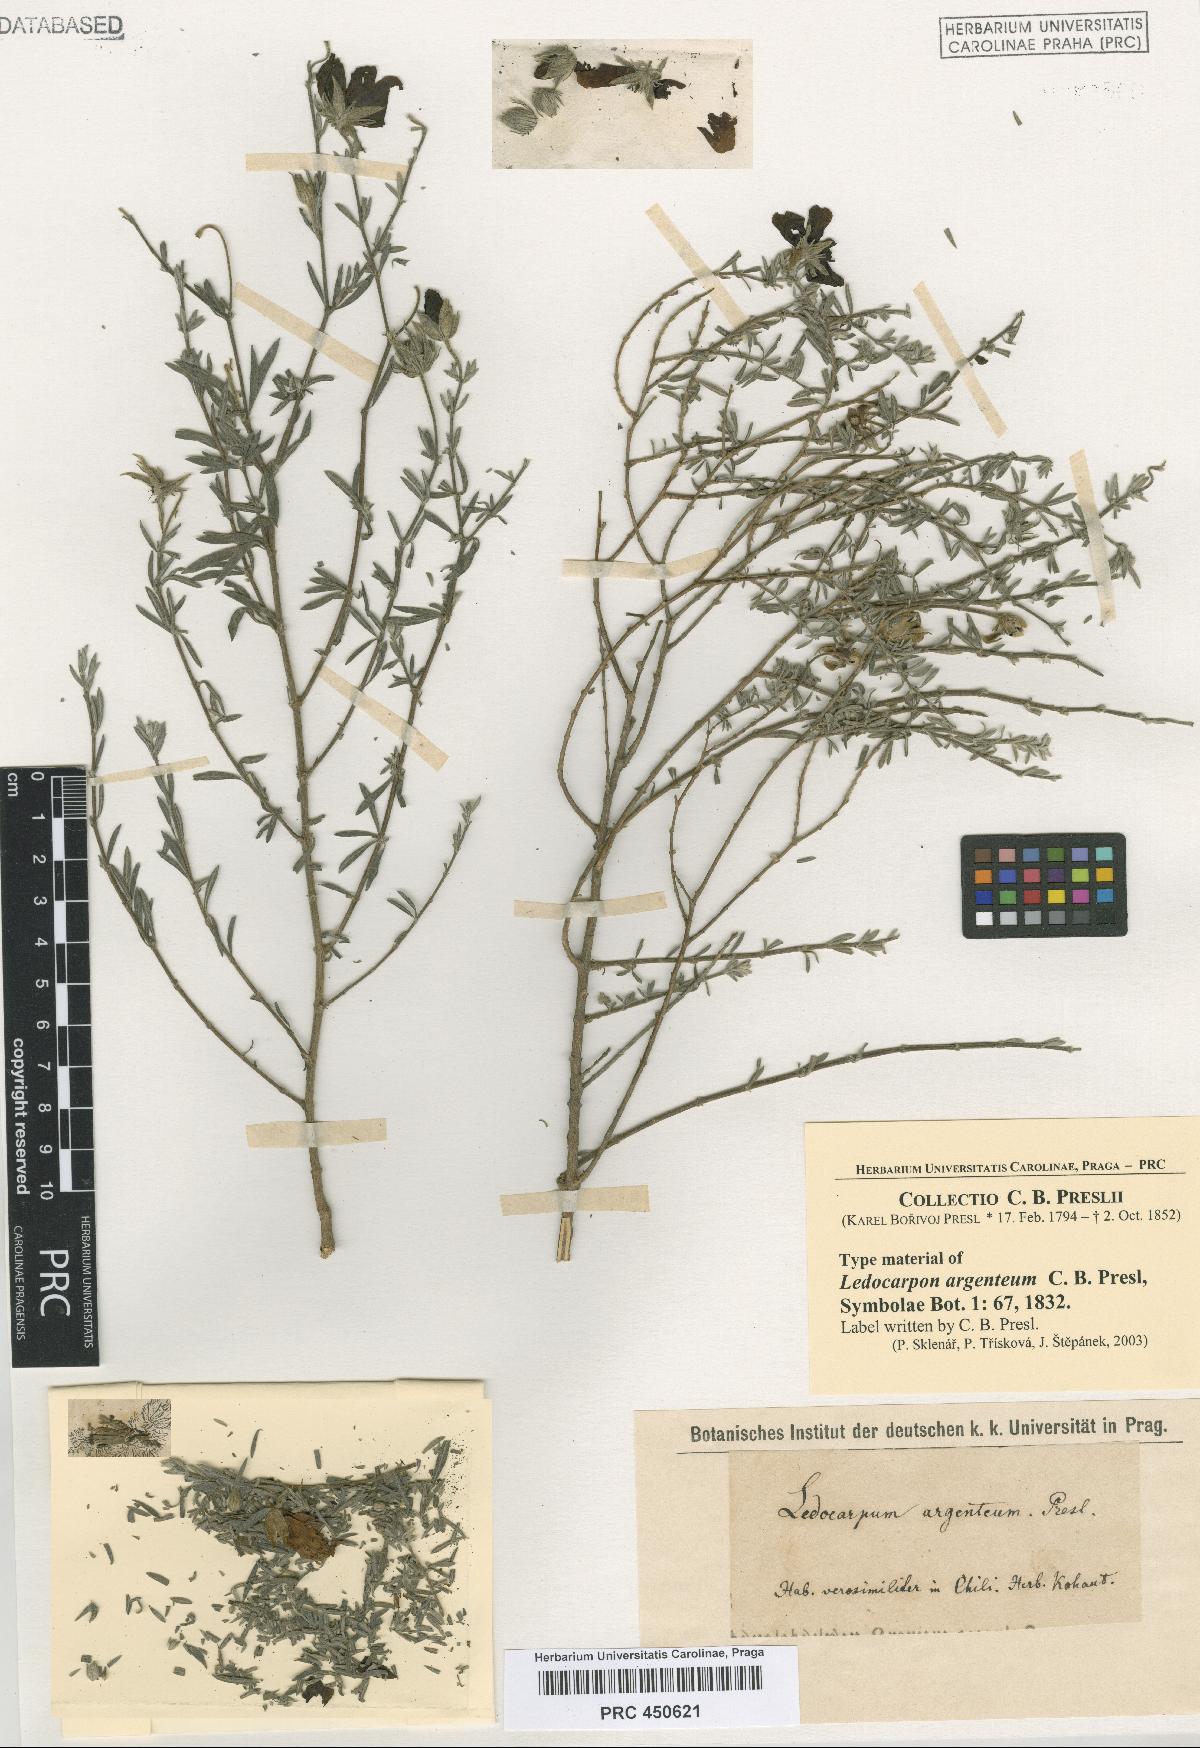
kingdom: Plantae
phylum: Tracheophyta
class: Magnoliopsida
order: Geraniales
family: Vivianiaceae
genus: Balbisia
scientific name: Balbisia verticillata
